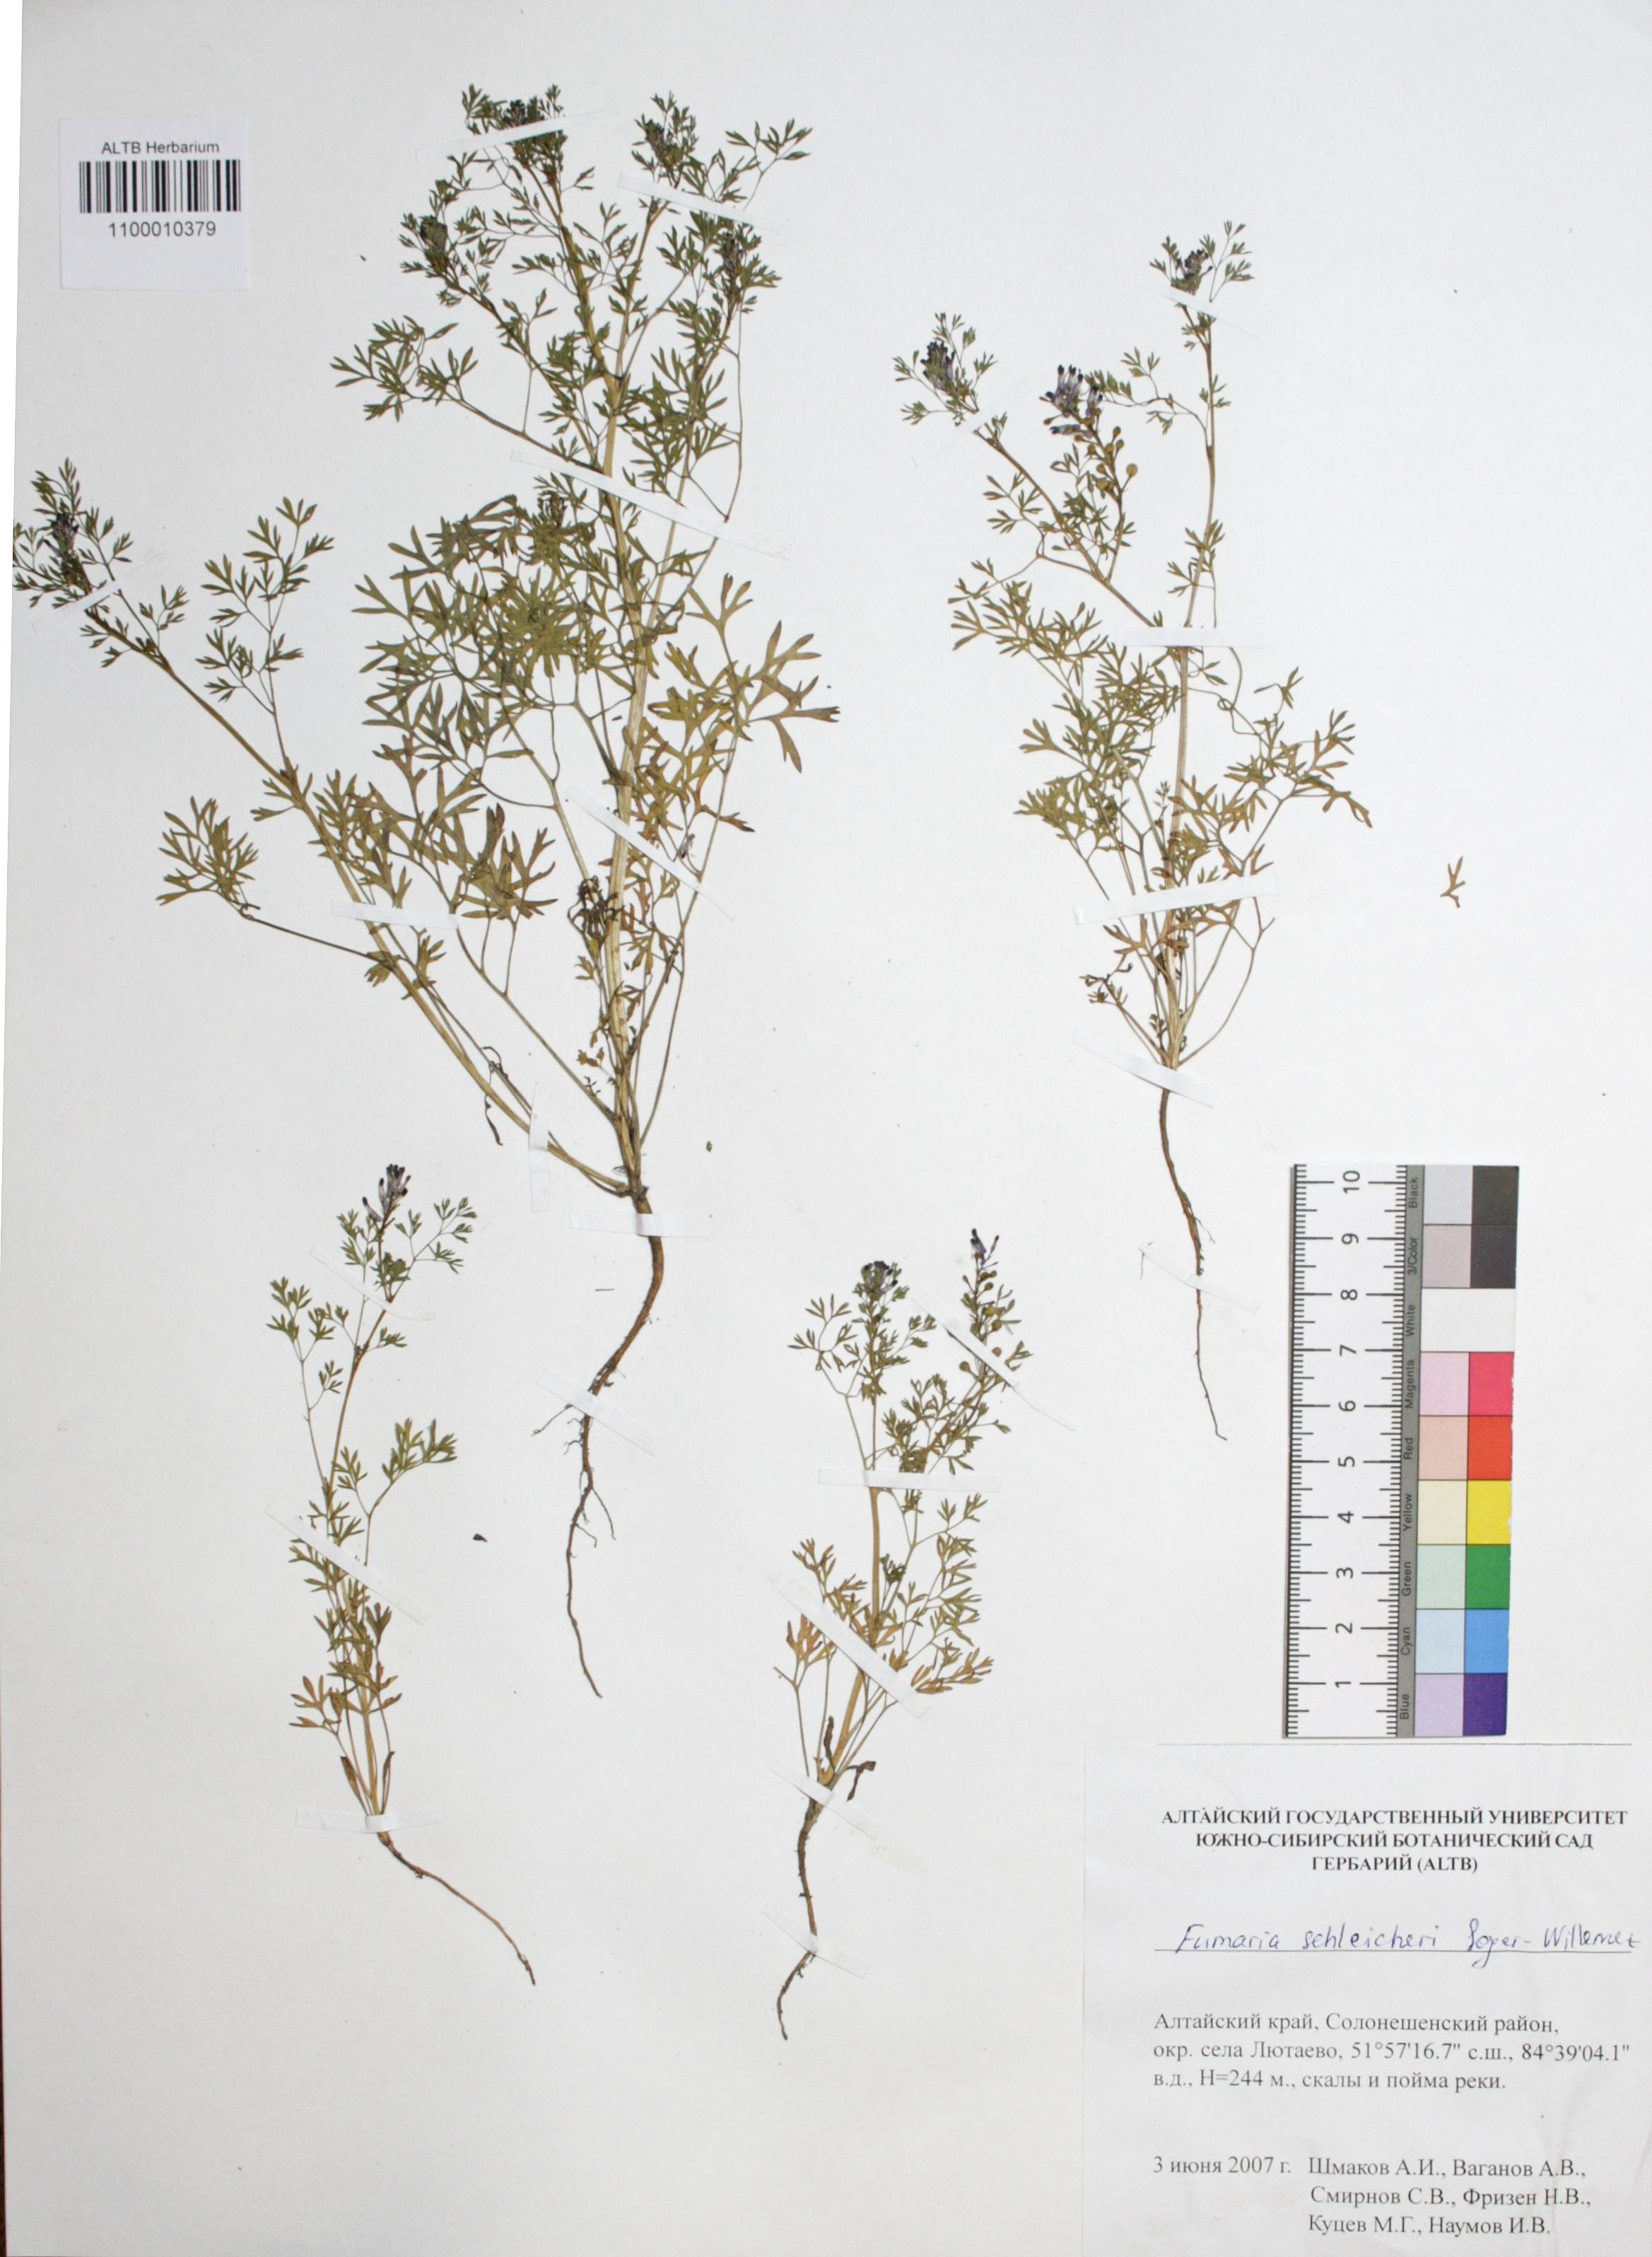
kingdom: Plantae
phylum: Tracheophyta
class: Magnoliopsida
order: Ranunculales
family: Papaveraceae
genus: Fumaria
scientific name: Fumaria schleicheri
